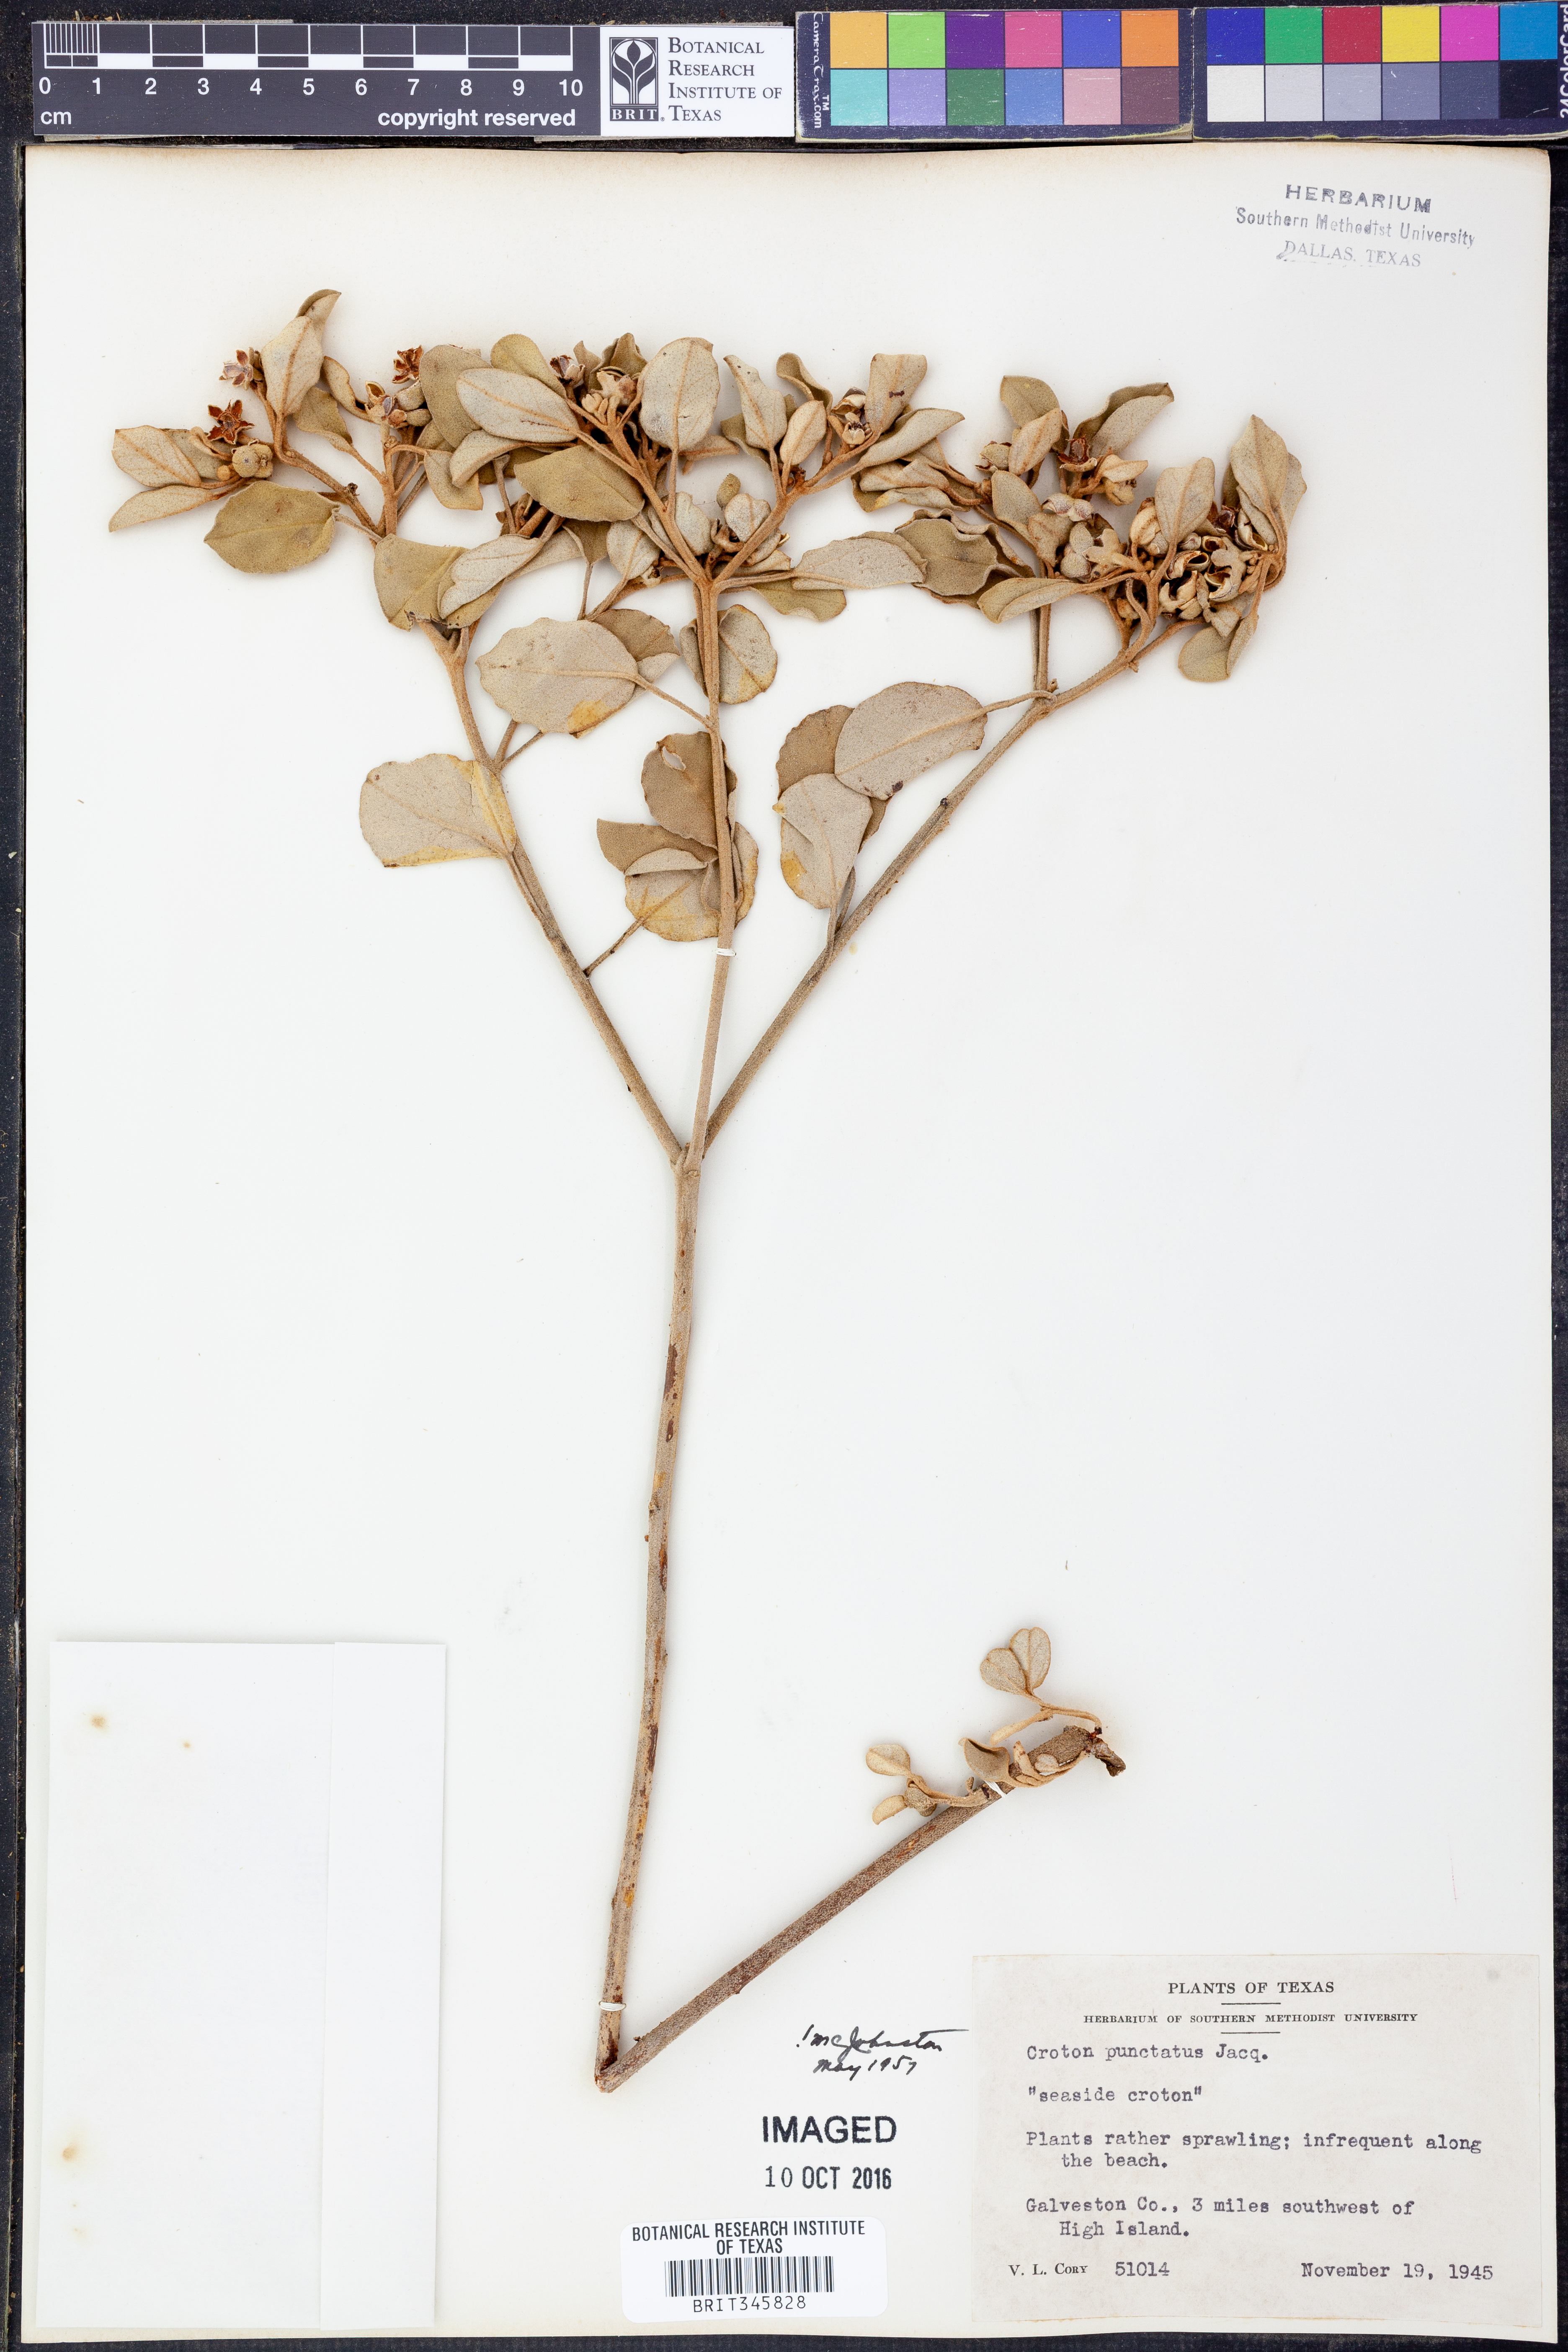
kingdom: Plantae
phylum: Tracheophyta
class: Magnoliopsida
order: Malpighiales
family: Euphorbiaceae
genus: Croton
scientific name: Croton punctatus
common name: Beach-tea
